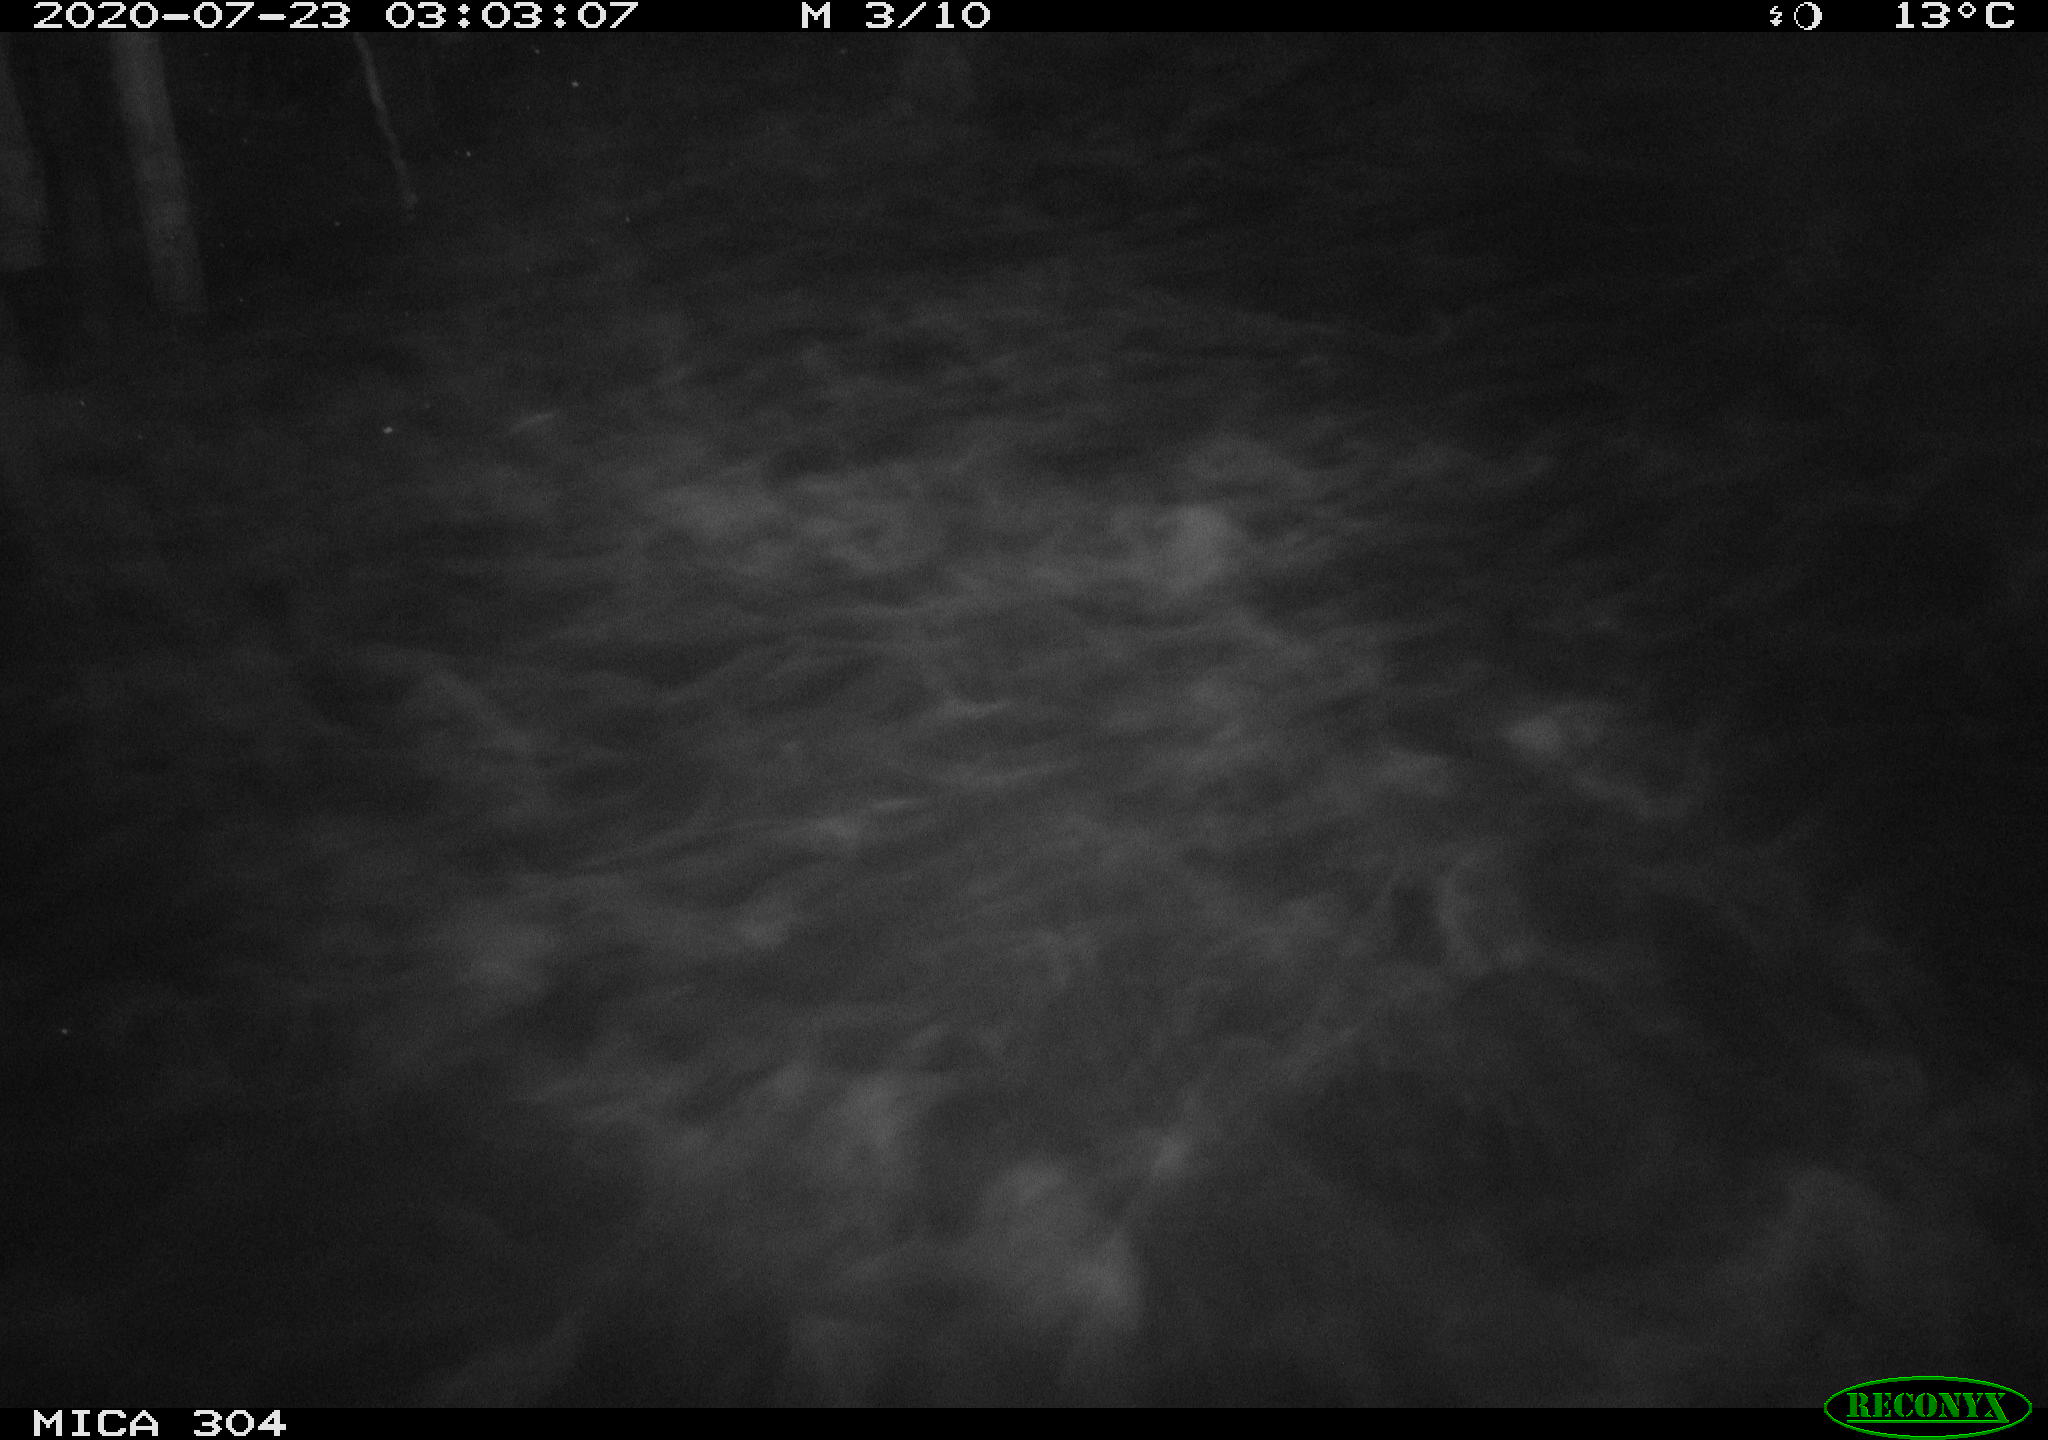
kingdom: Animalia
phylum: Chordata
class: Mammalia
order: Rodentia
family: Cricetidae
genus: Ondatra
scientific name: Ondatra zibethicus
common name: Muskrat
